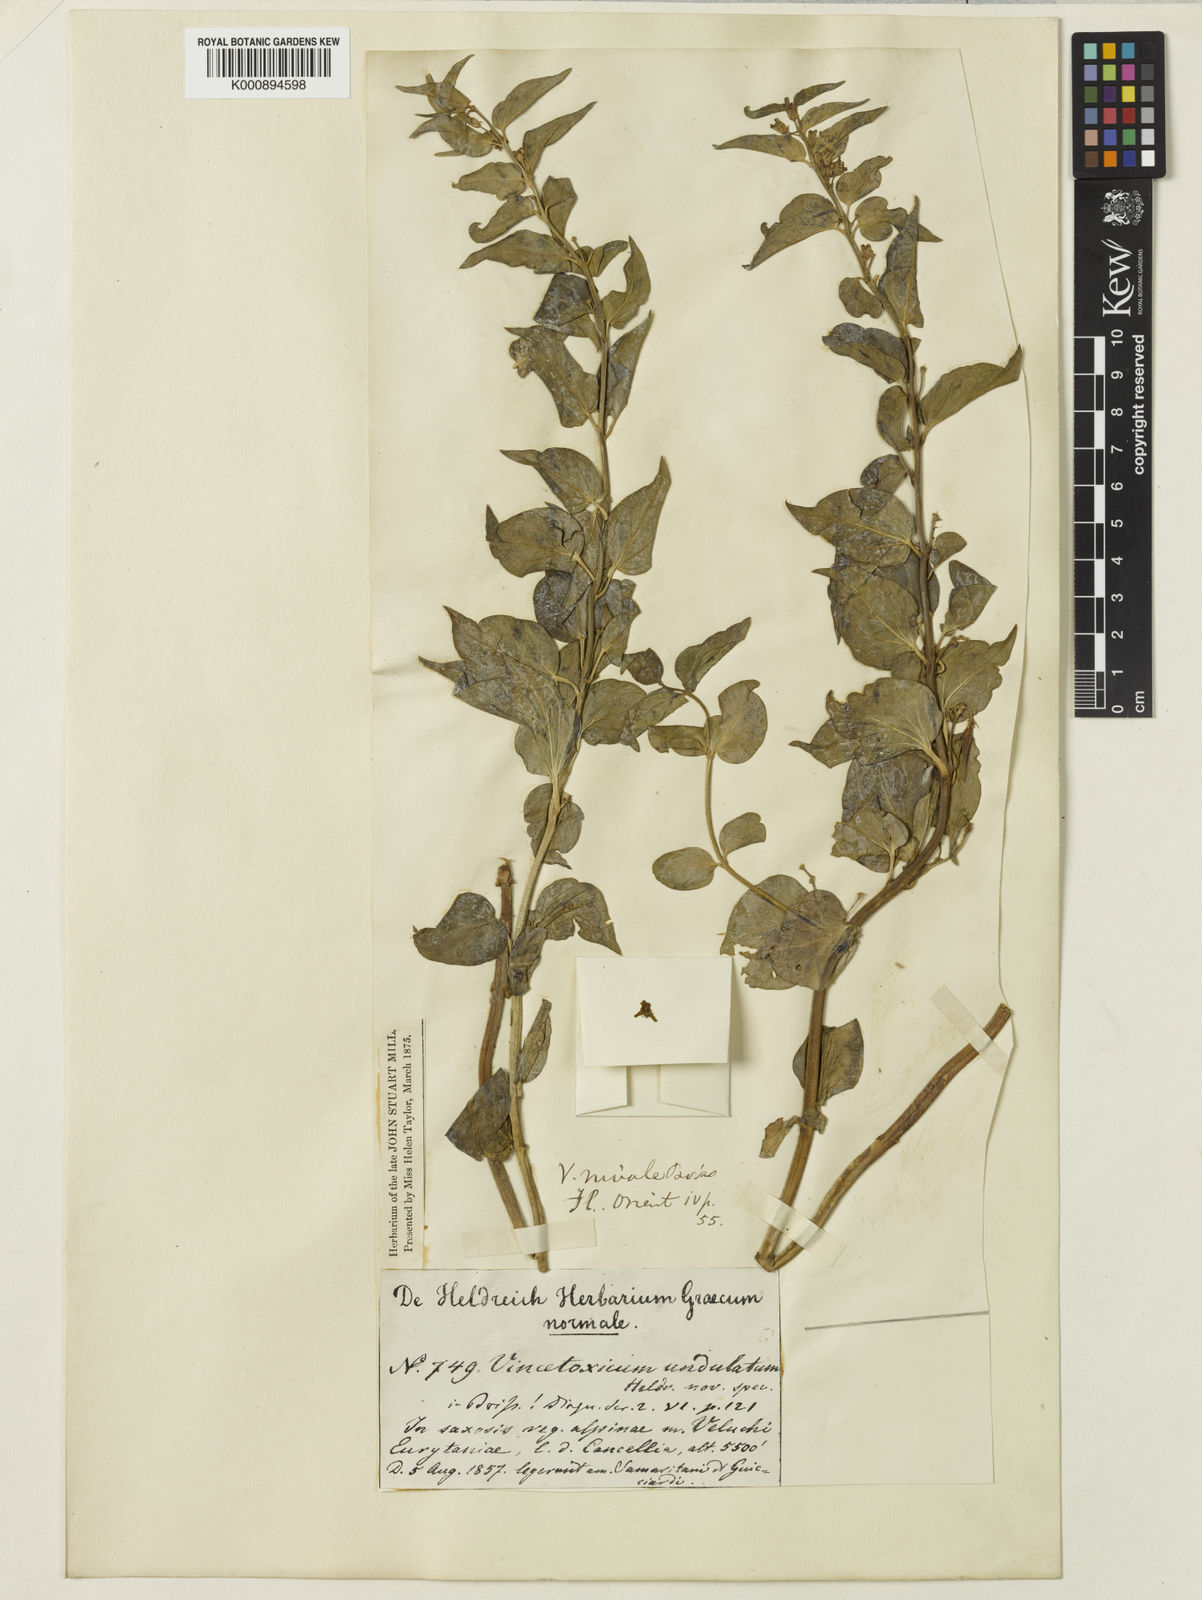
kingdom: Plantae
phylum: Tracheophyta
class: Magnoliopsida
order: Gentianales
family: Apocynaceae
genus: Vincetoxicum
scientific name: Vincetoxicum hirundinaria
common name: White swallowwort
